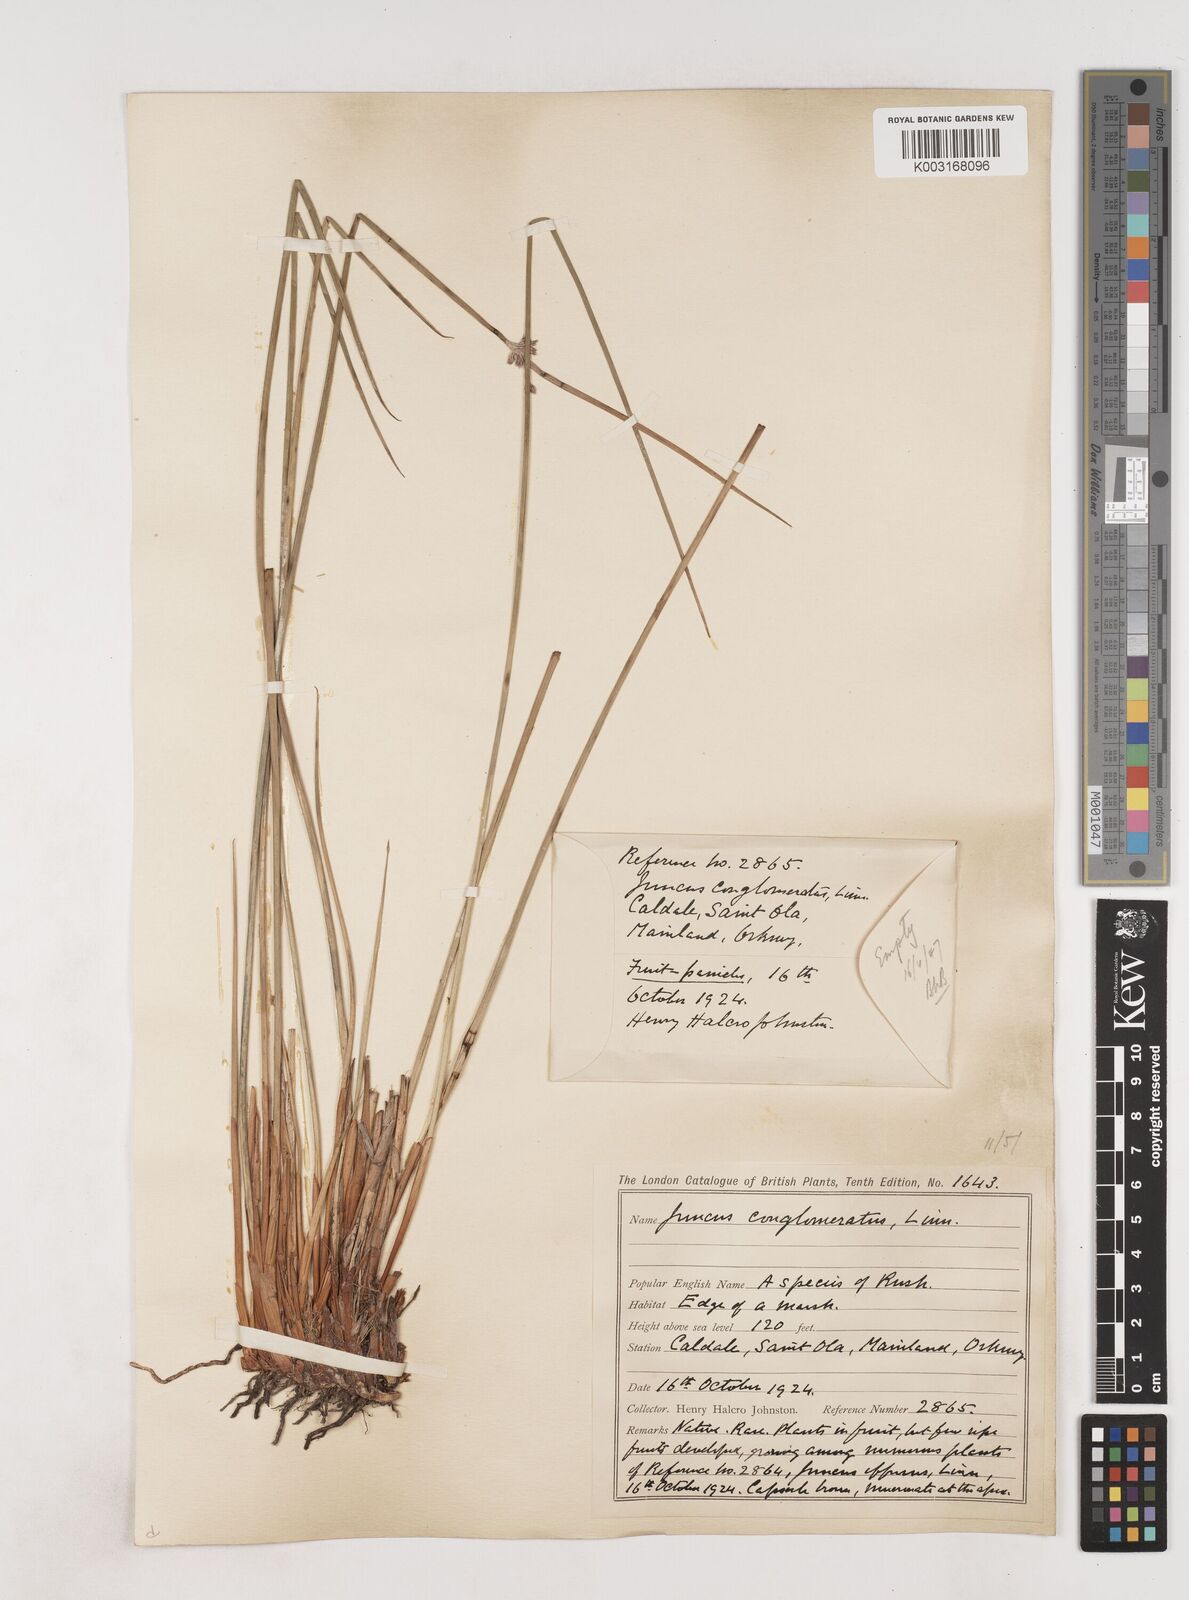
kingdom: Plantae
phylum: Tracheophyta
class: Liliopsida
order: Poales
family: Juncaceae
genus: Juncus
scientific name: Juncus conglomeratus
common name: Compact rush
